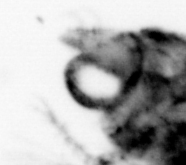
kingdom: Animalia
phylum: Arthropoda
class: Malacostraca
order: Decapoda
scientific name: Decapoda
